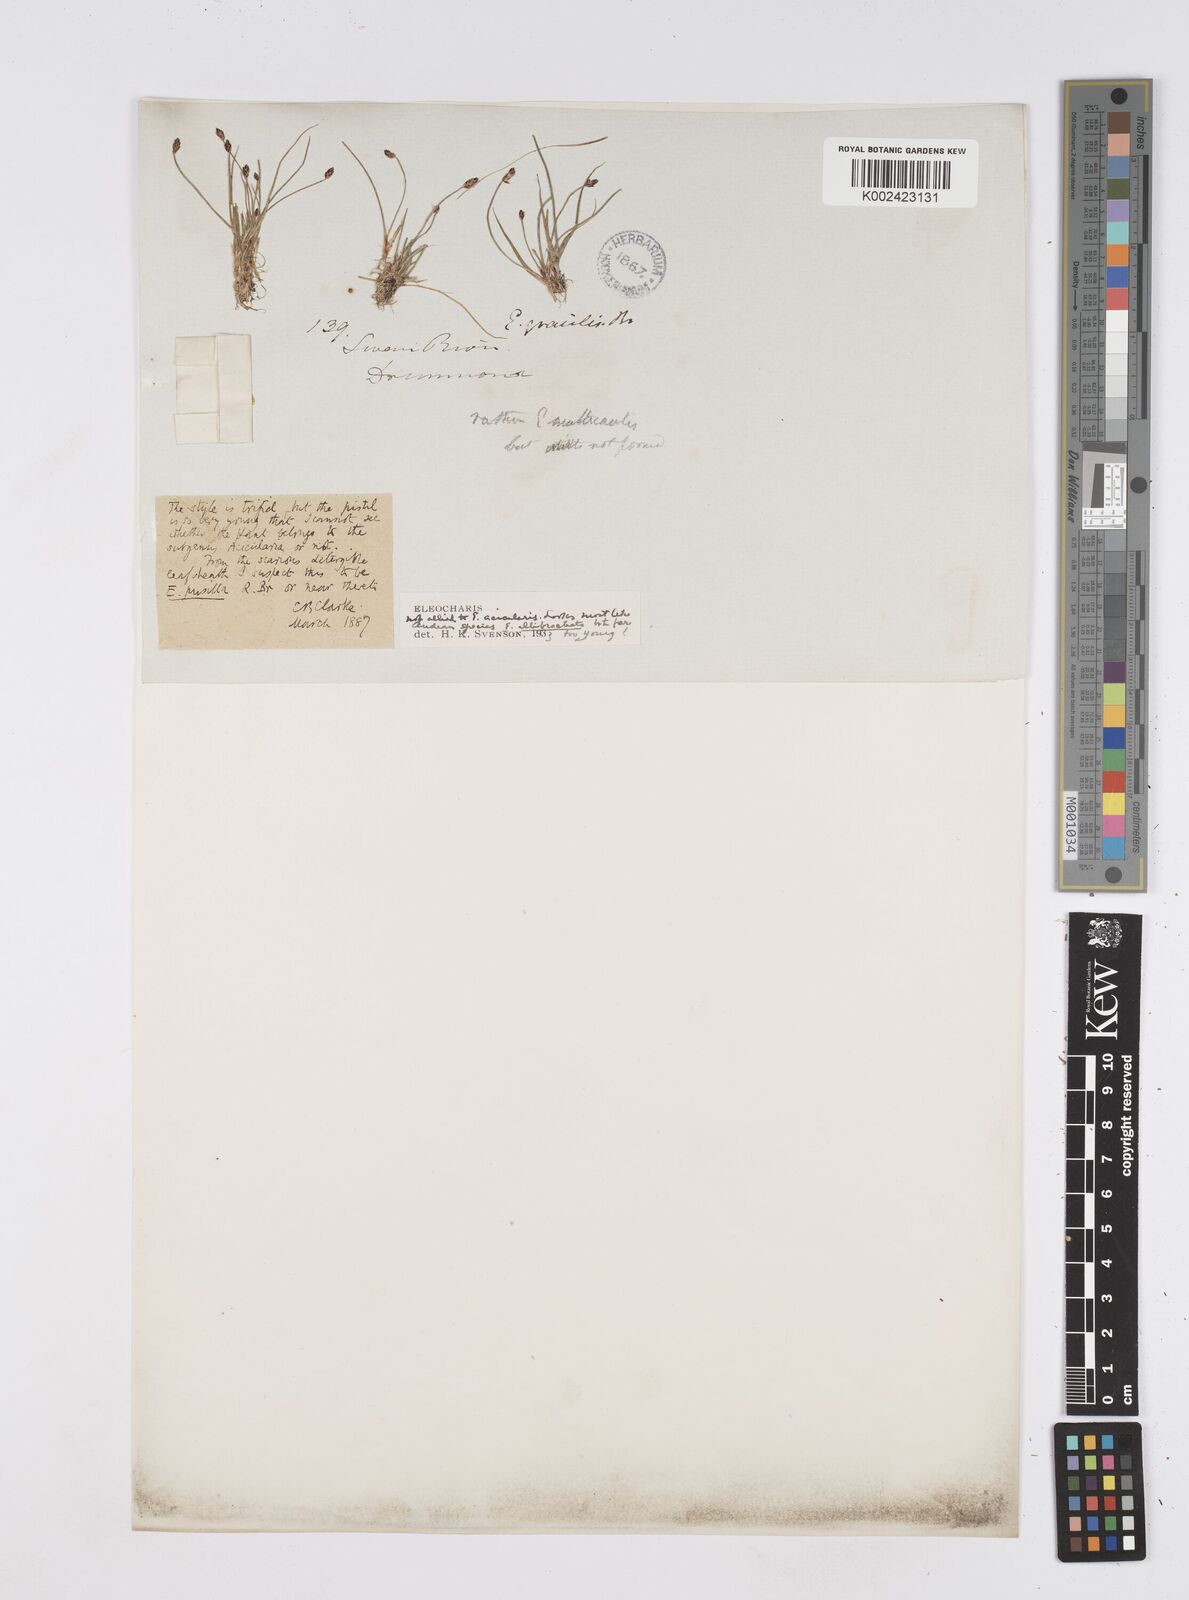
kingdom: Plantae
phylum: Tracheophyta
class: Liliopsida
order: Poales
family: Cyperaceae
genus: Eleocharis
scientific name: Eleocharis pusilla
